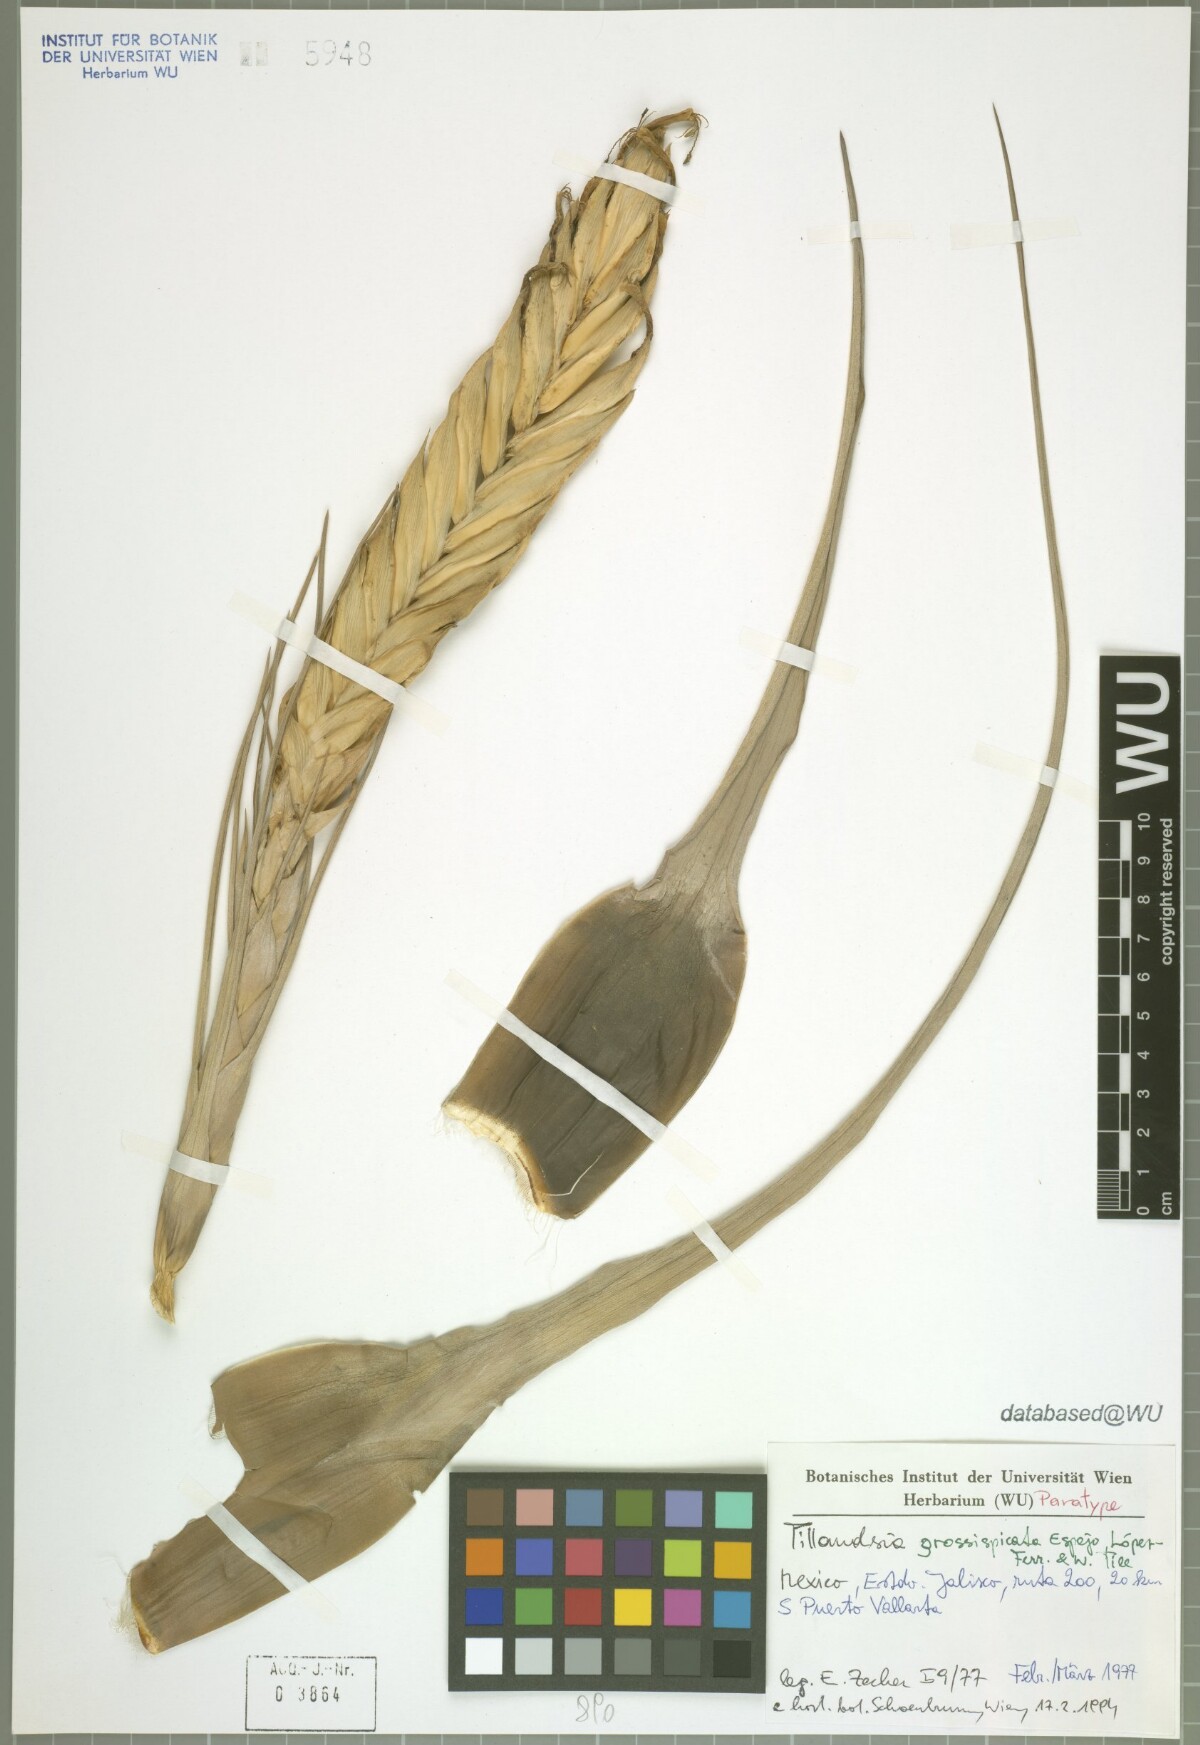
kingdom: Plantae
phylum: Tracheophyta
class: Liliopsida
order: Poales
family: Bromeliaceae
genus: Tillandsia
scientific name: Tillandsia grossispicata
